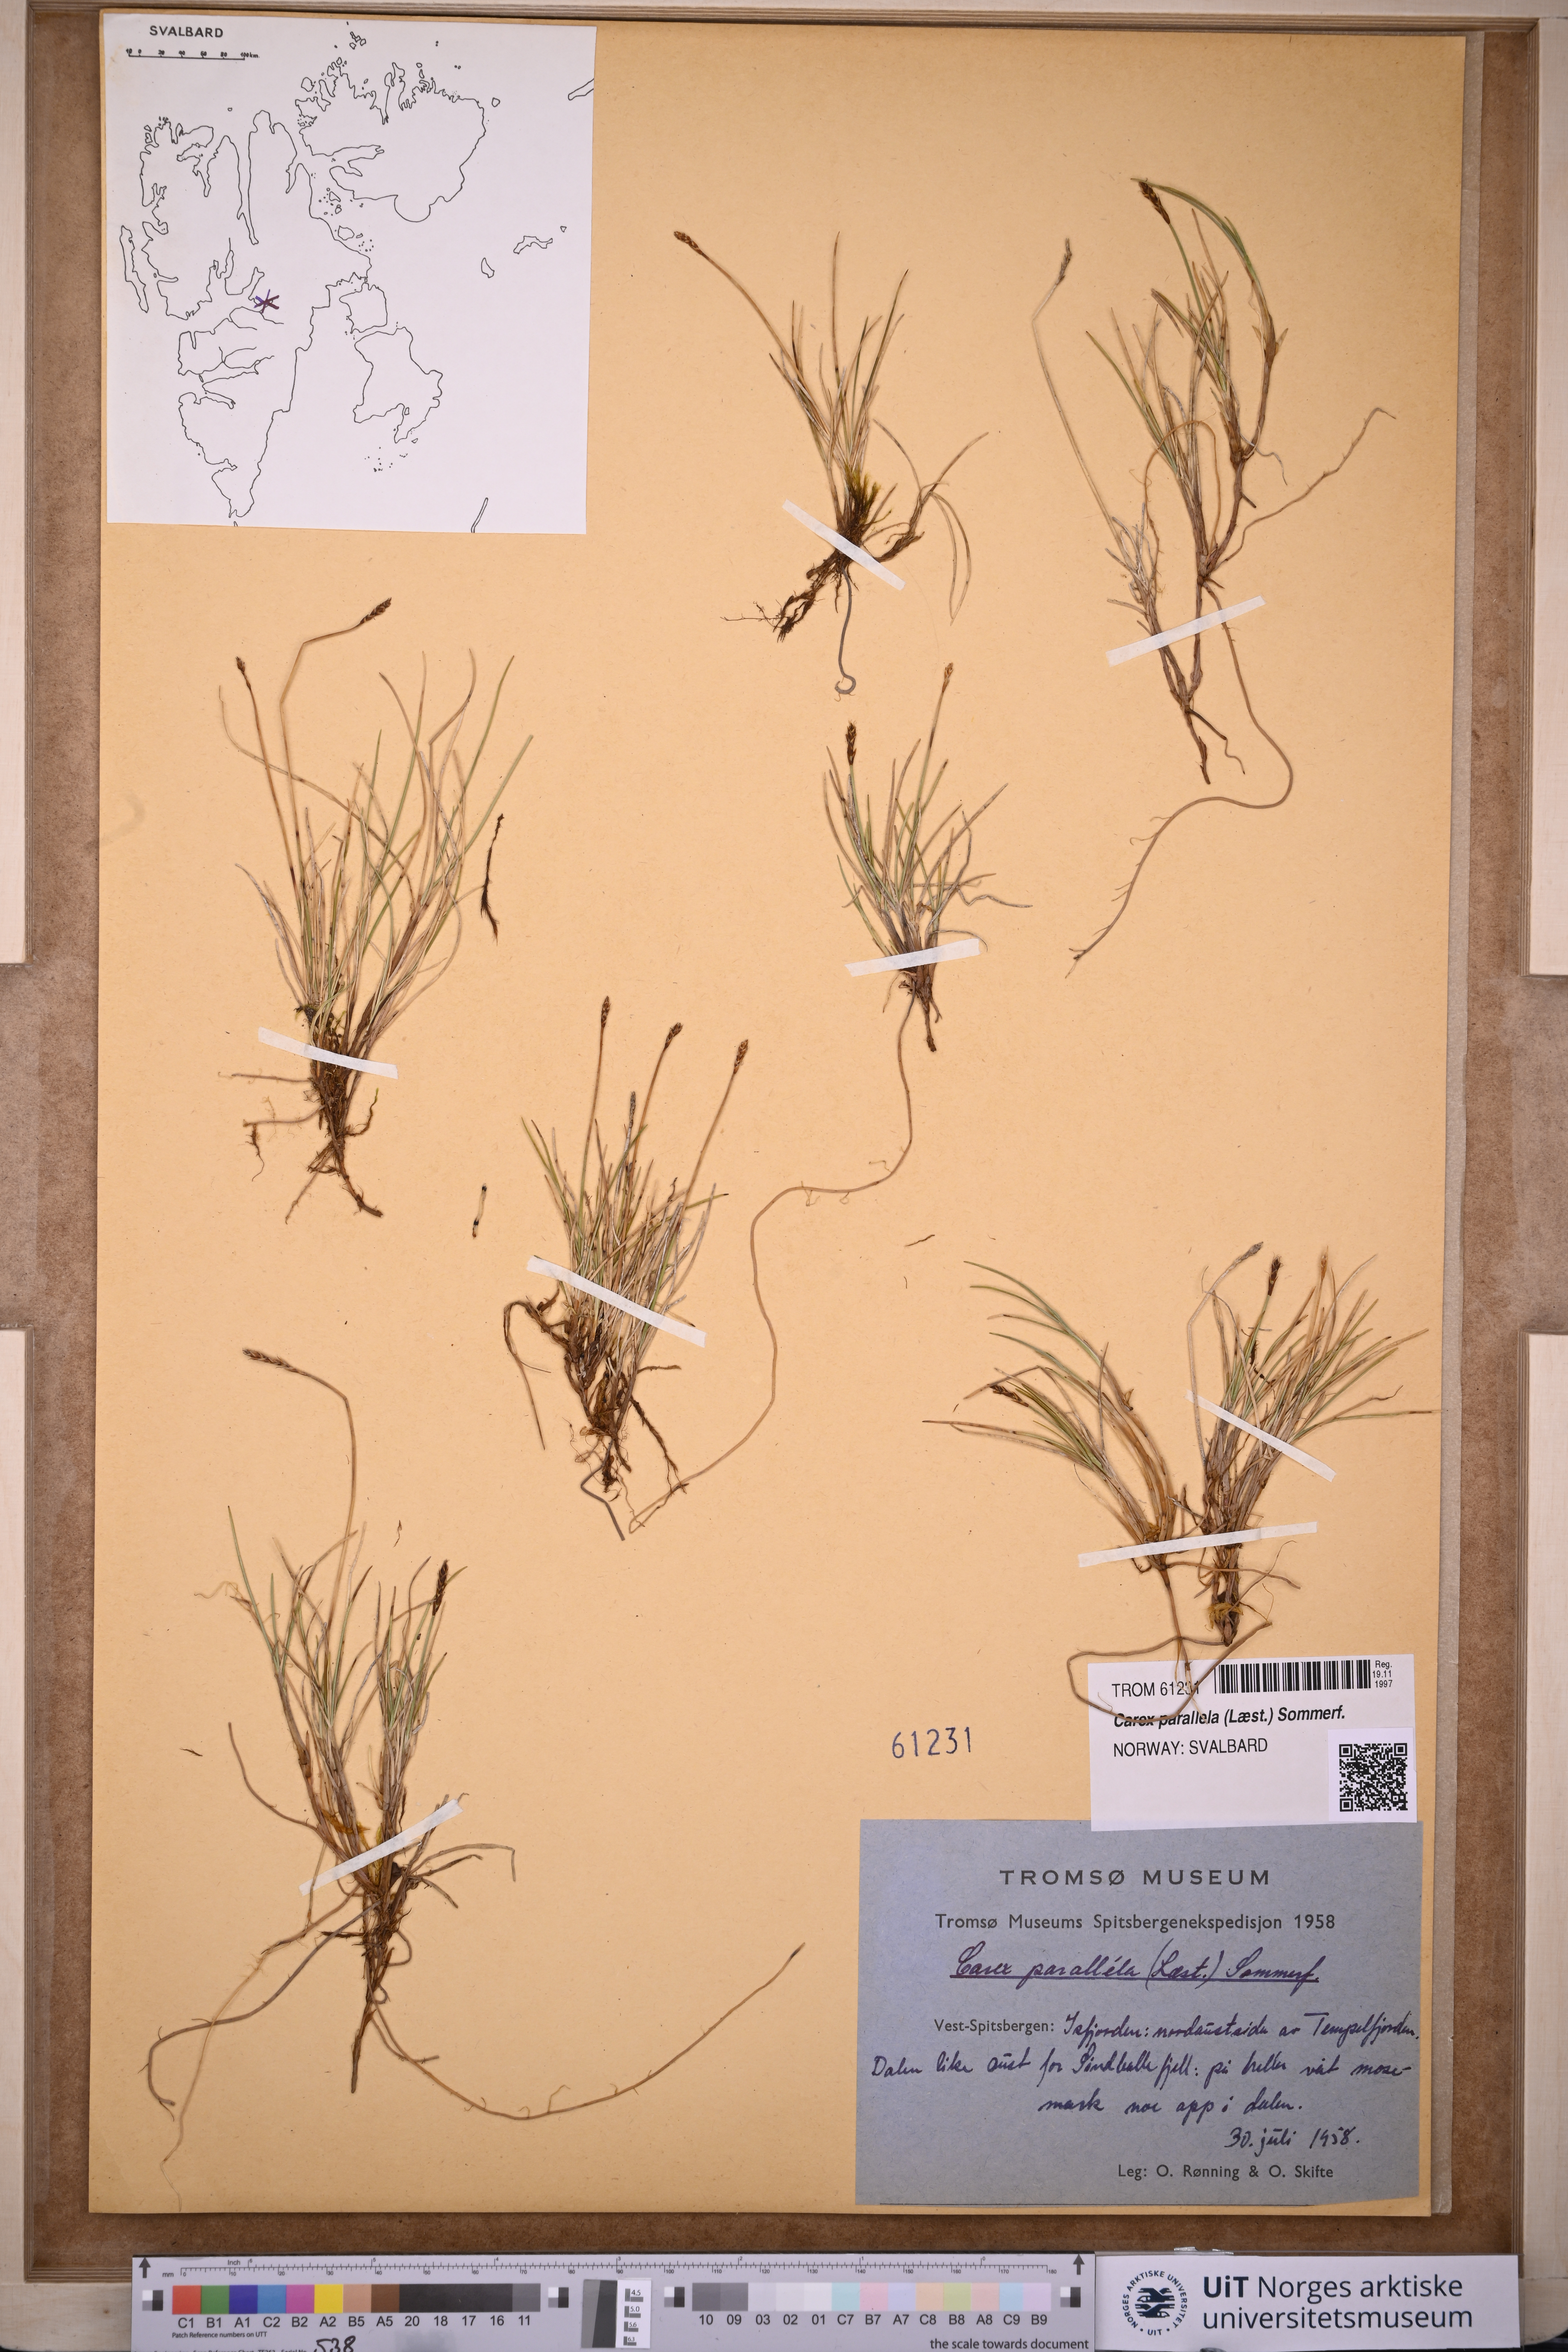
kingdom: Plantae
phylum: Tracheophyta
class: Liliopsida
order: Poales
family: Cyperaceae
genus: Carex
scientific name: Carex parallela
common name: Parallel sedge
